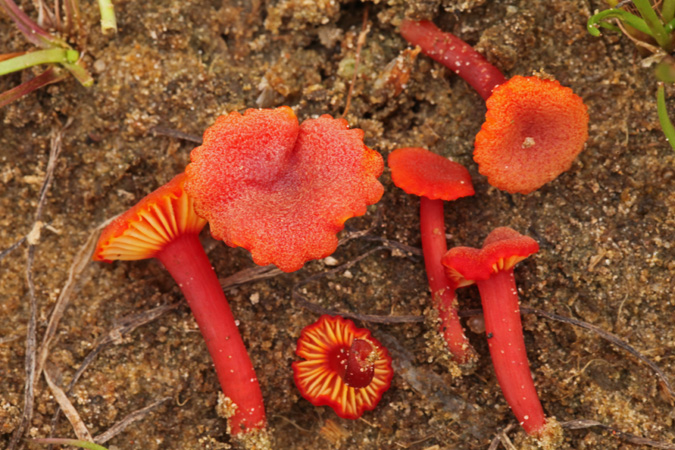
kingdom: Fungi
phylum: Basidiomycota
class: Agaricomycetes
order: Agaricales
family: Hygrophoraceae
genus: Hygrocybe
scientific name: Hygrocybe coccineocrenata
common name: tørvemos-vokshat
